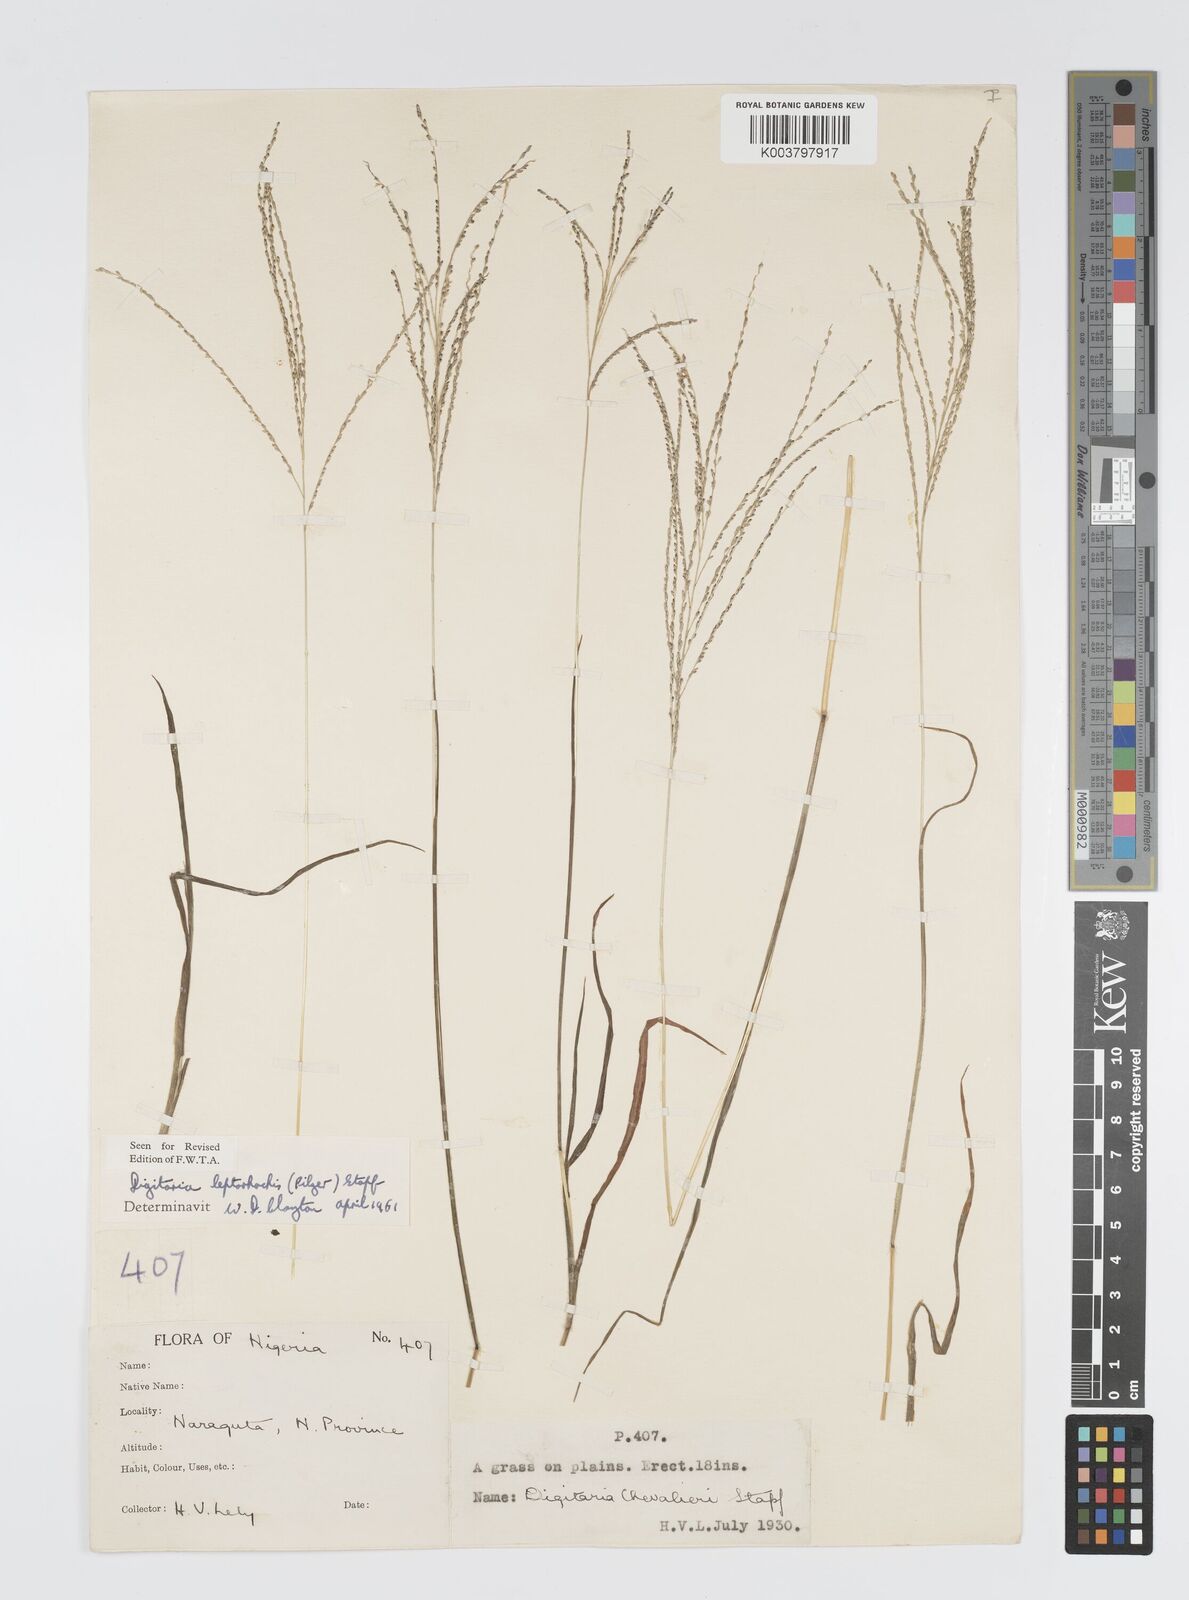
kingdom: Plantae
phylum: Tracheophyta
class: Liliopsida
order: Poales
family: Poaceae
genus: Digitaria
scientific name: Digitaria leptorhachis
